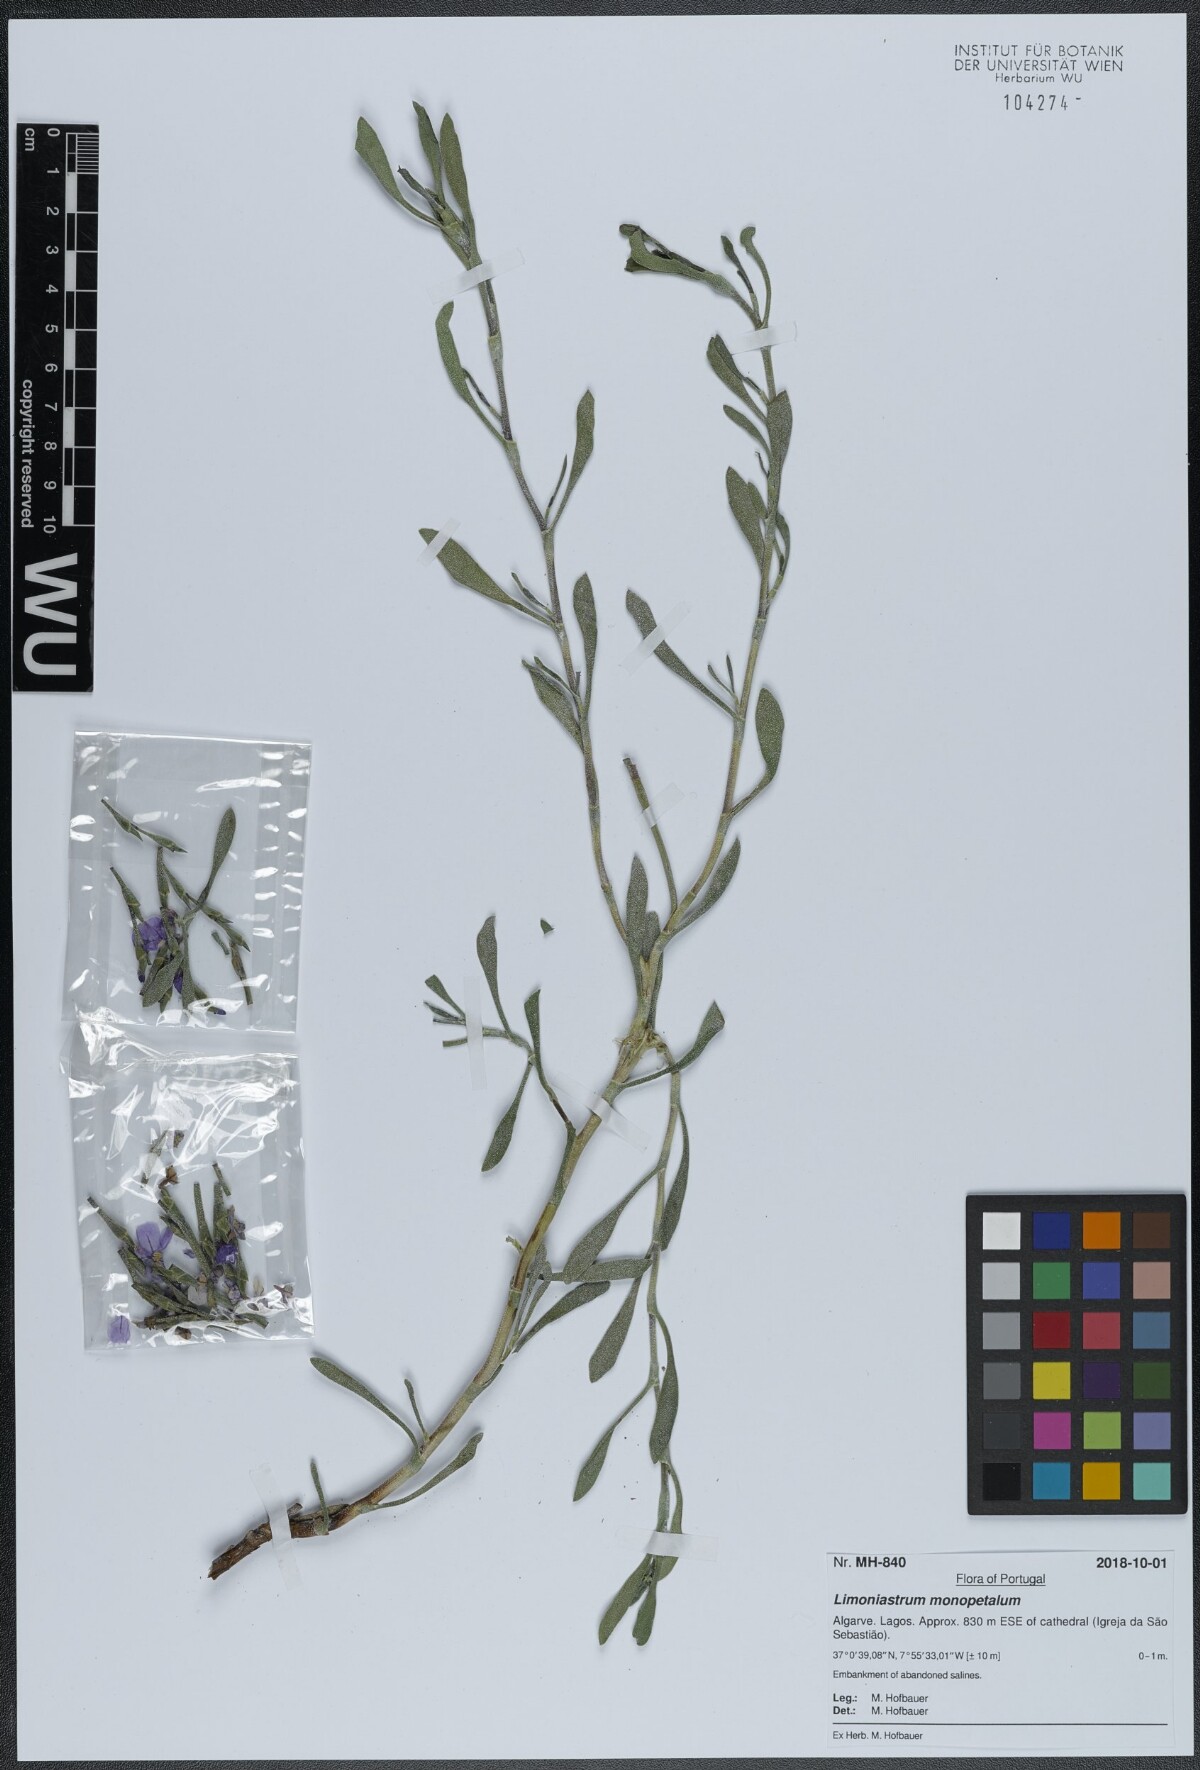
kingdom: Plantae
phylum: Tracheophyta
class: Magnoliopsida
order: Caryophyllales
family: Plumbaginaceae
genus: Limoniastrum
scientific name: Limoniastrum monopetalum
